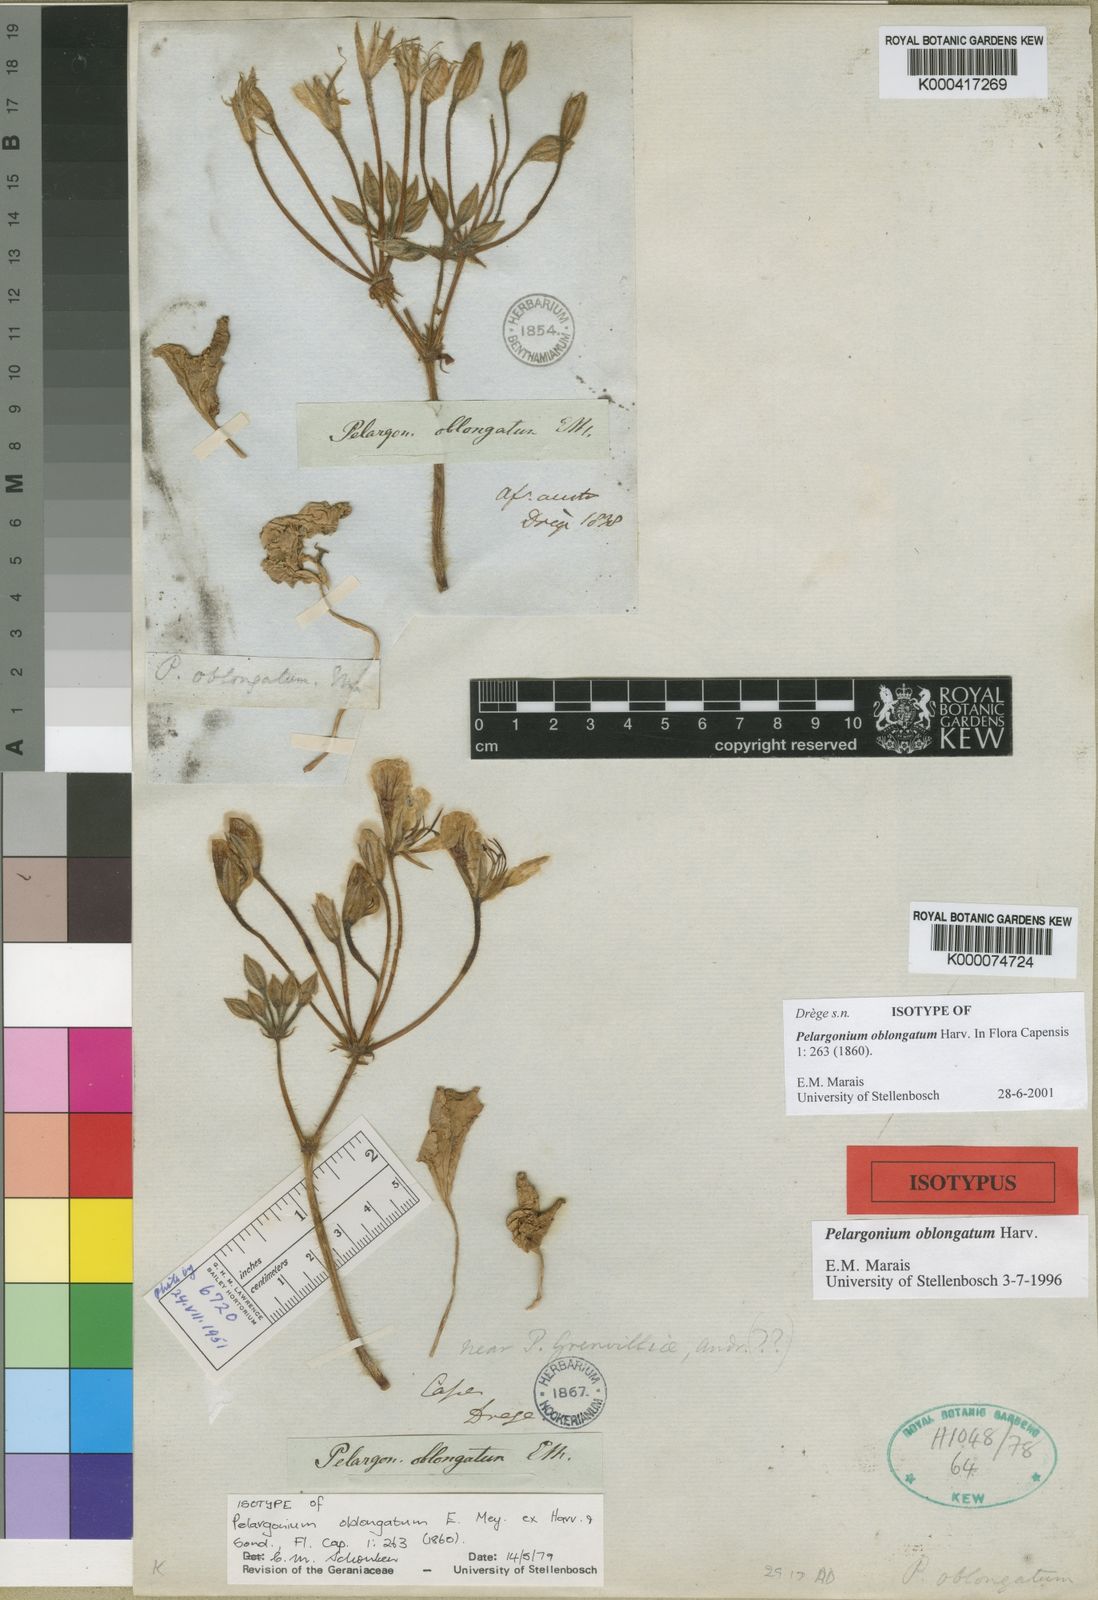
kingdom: Plantae
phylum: Tracheophyta
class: Magnoliopsida
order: Geraniales
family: Geraniaceae
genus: Pelargonium
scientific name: Pelargonium oblongatum
